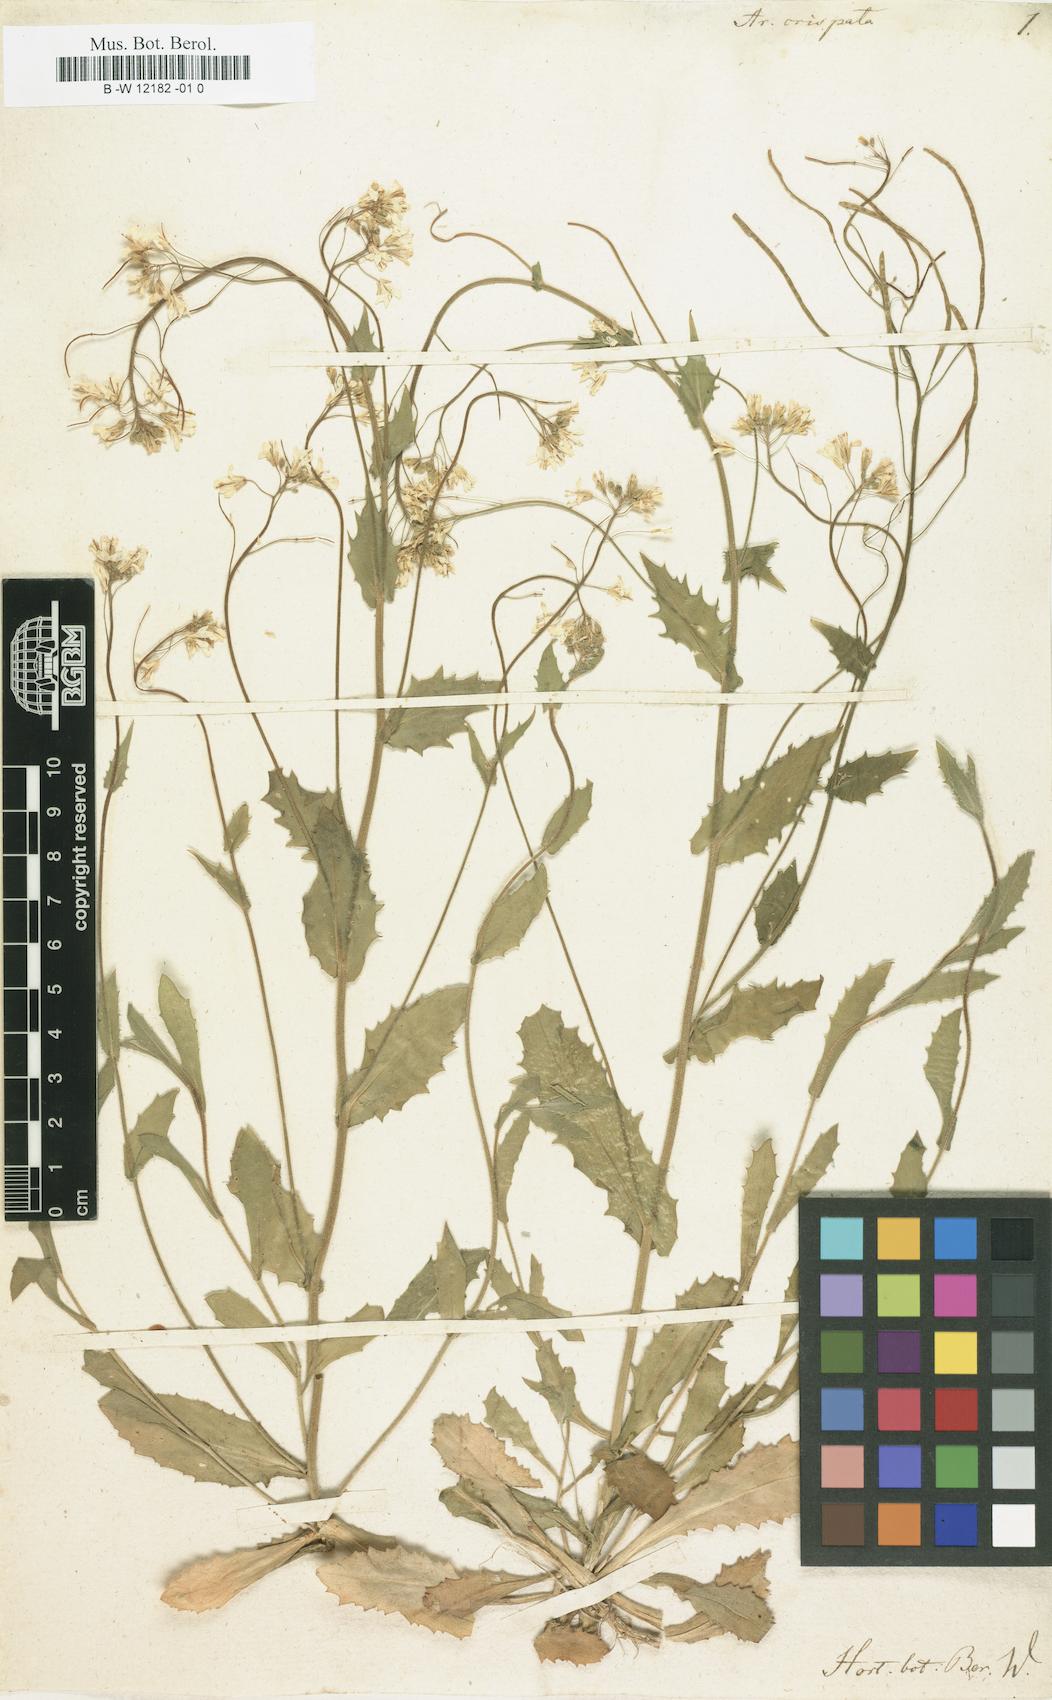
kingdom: Plantae
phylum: Tracheophyta
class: Magnoliopsida
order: Brassicales
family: Brassicaceae
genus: Arabis
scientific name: Arabis alpina
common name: Alpine rock-cress
